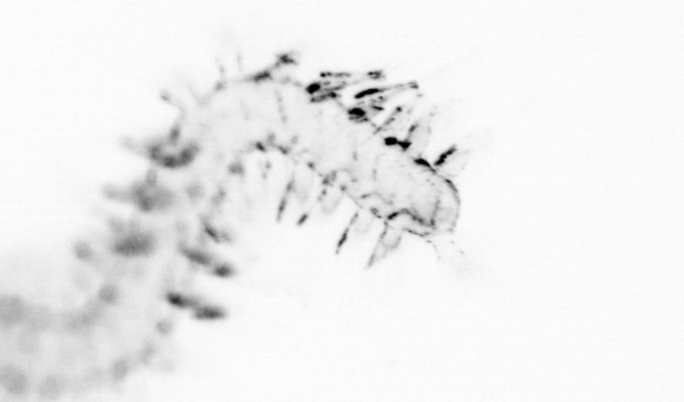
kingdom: Animalia
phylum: Chaetognatha
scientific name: Chaetognatha
